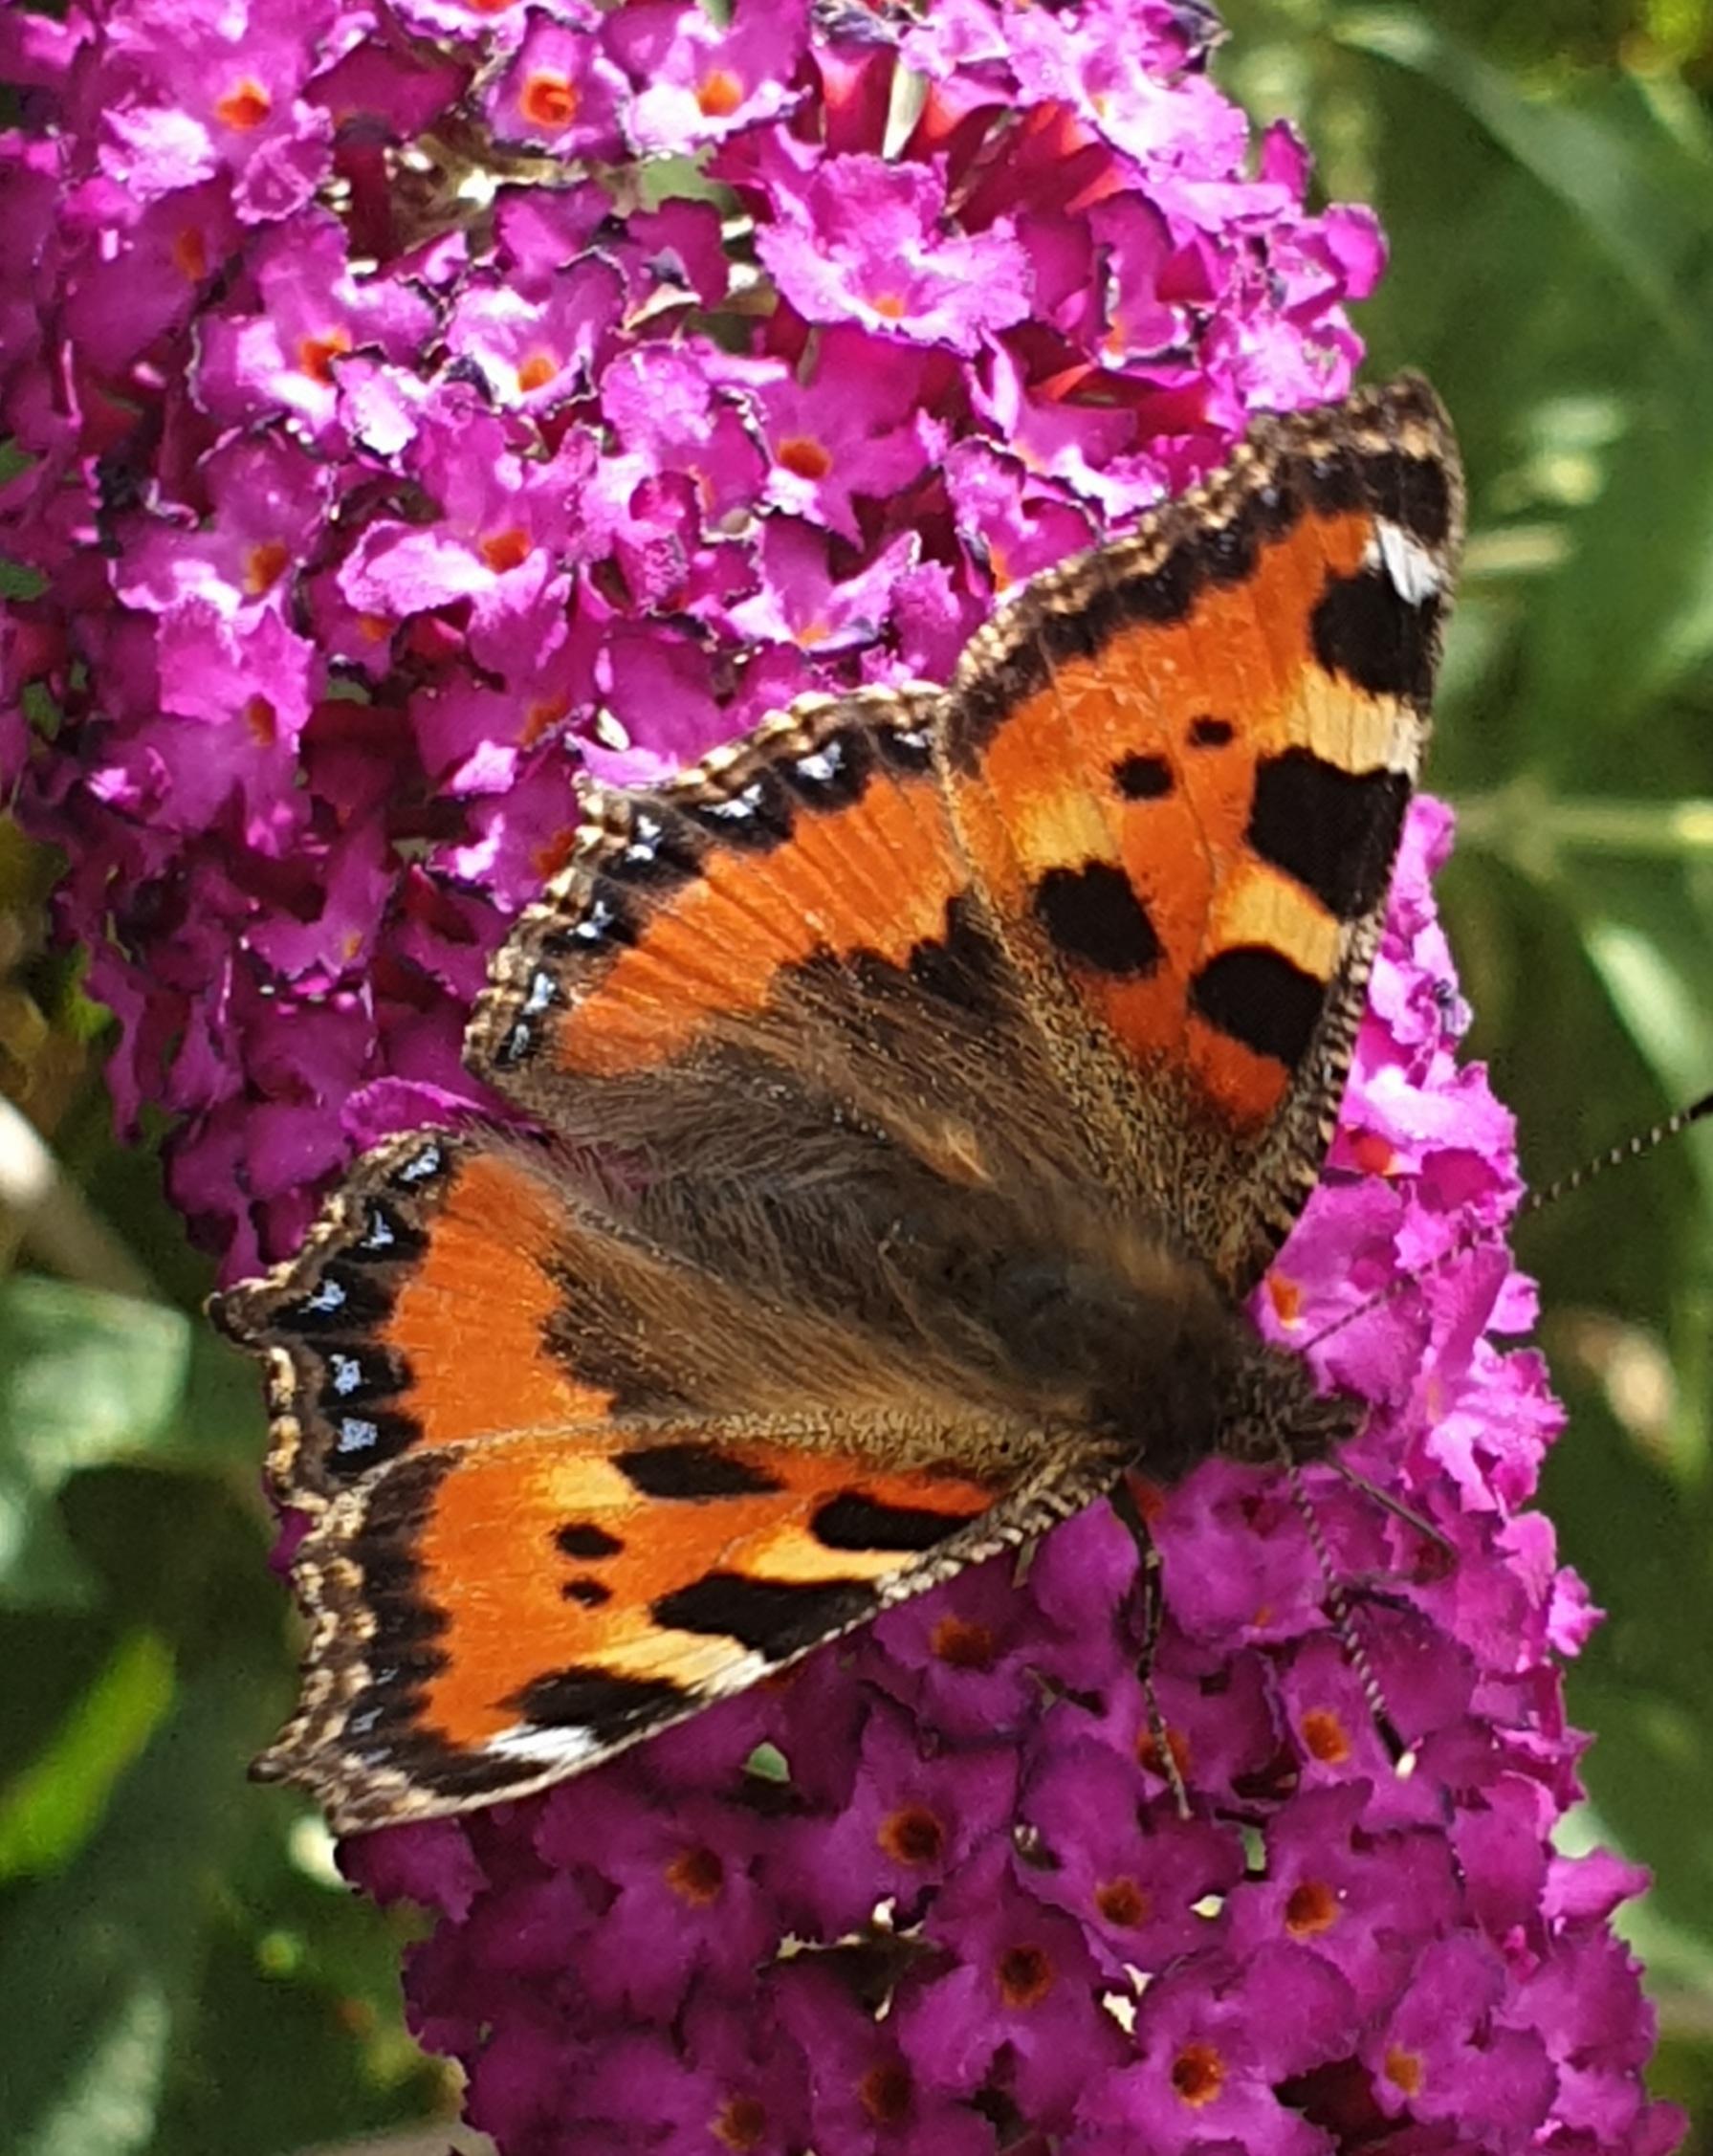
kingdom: Animalia
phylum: Arthropoda
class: Insecta
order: Lepidoptera
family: Nymphalidae
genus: Aglais
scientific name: Aglais urticae
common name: Nældens takvinge
